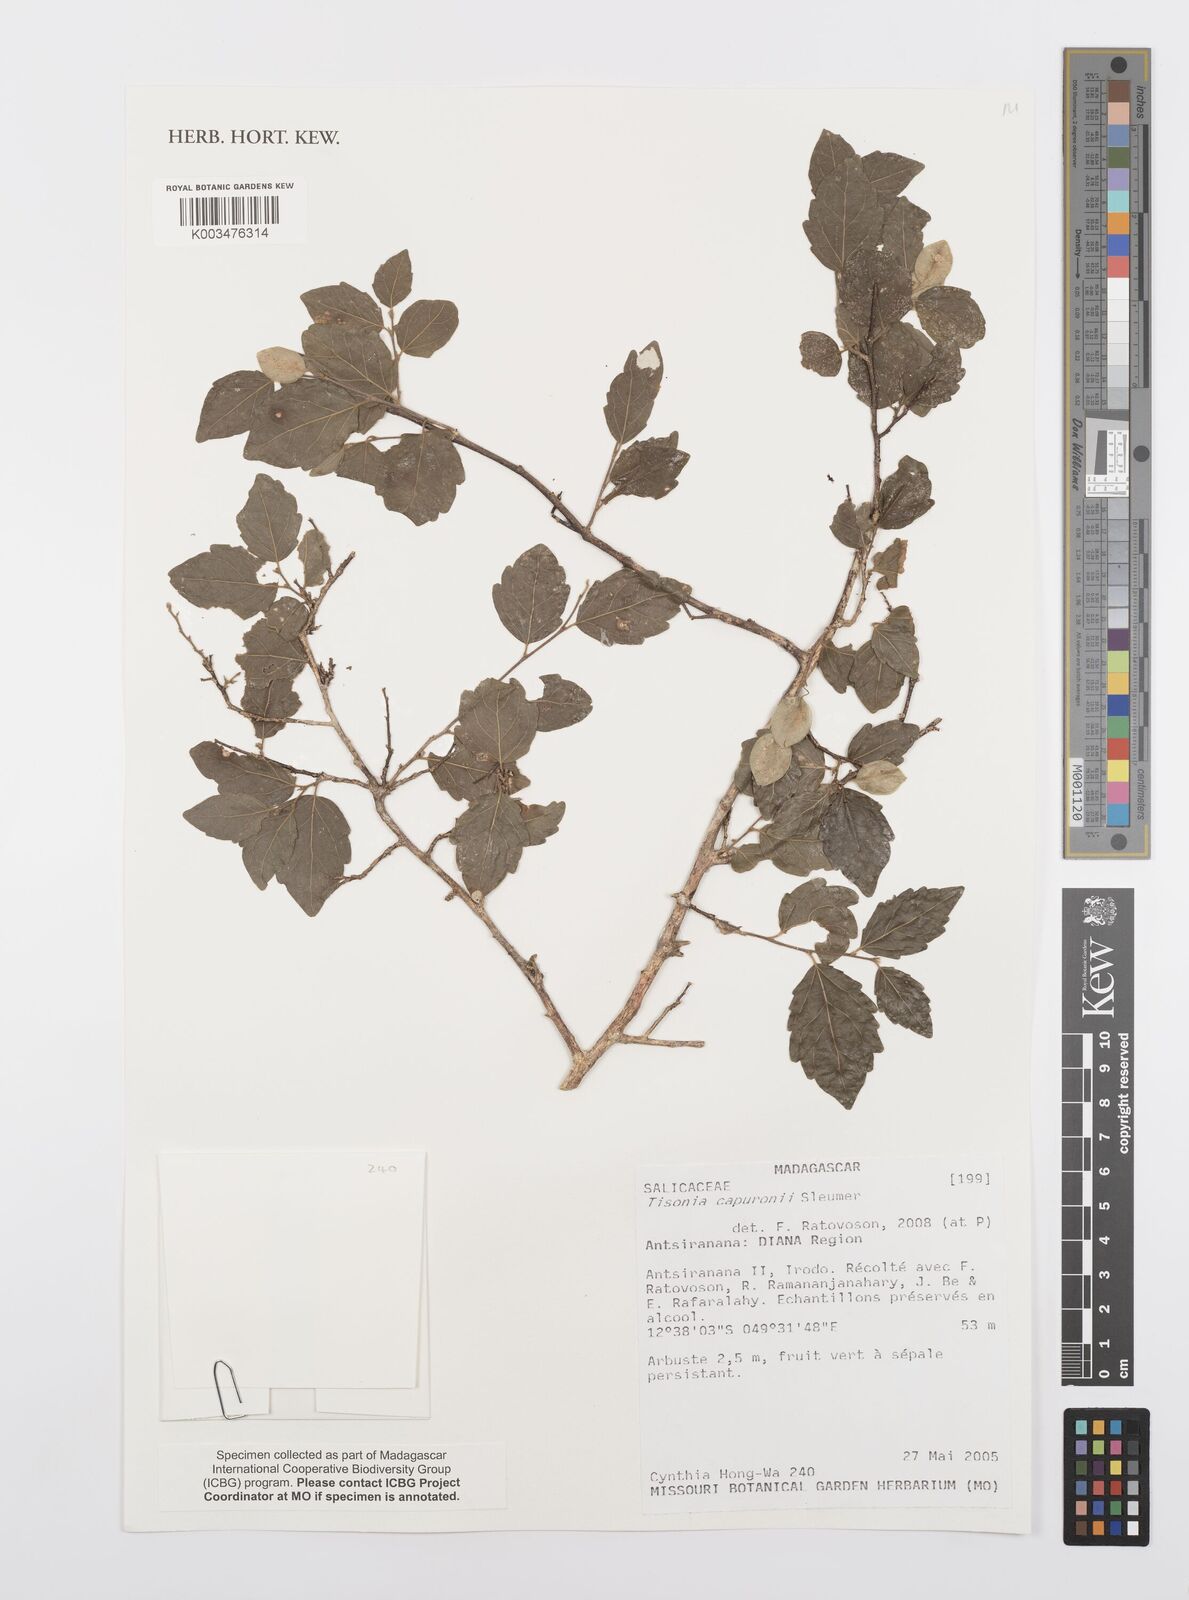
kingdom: Plantae
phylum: Tracheophyta
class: Magnoliopsida
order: Malpighiales
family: Salicaceae
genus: Tisonia
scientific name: Tisonia capuronii
